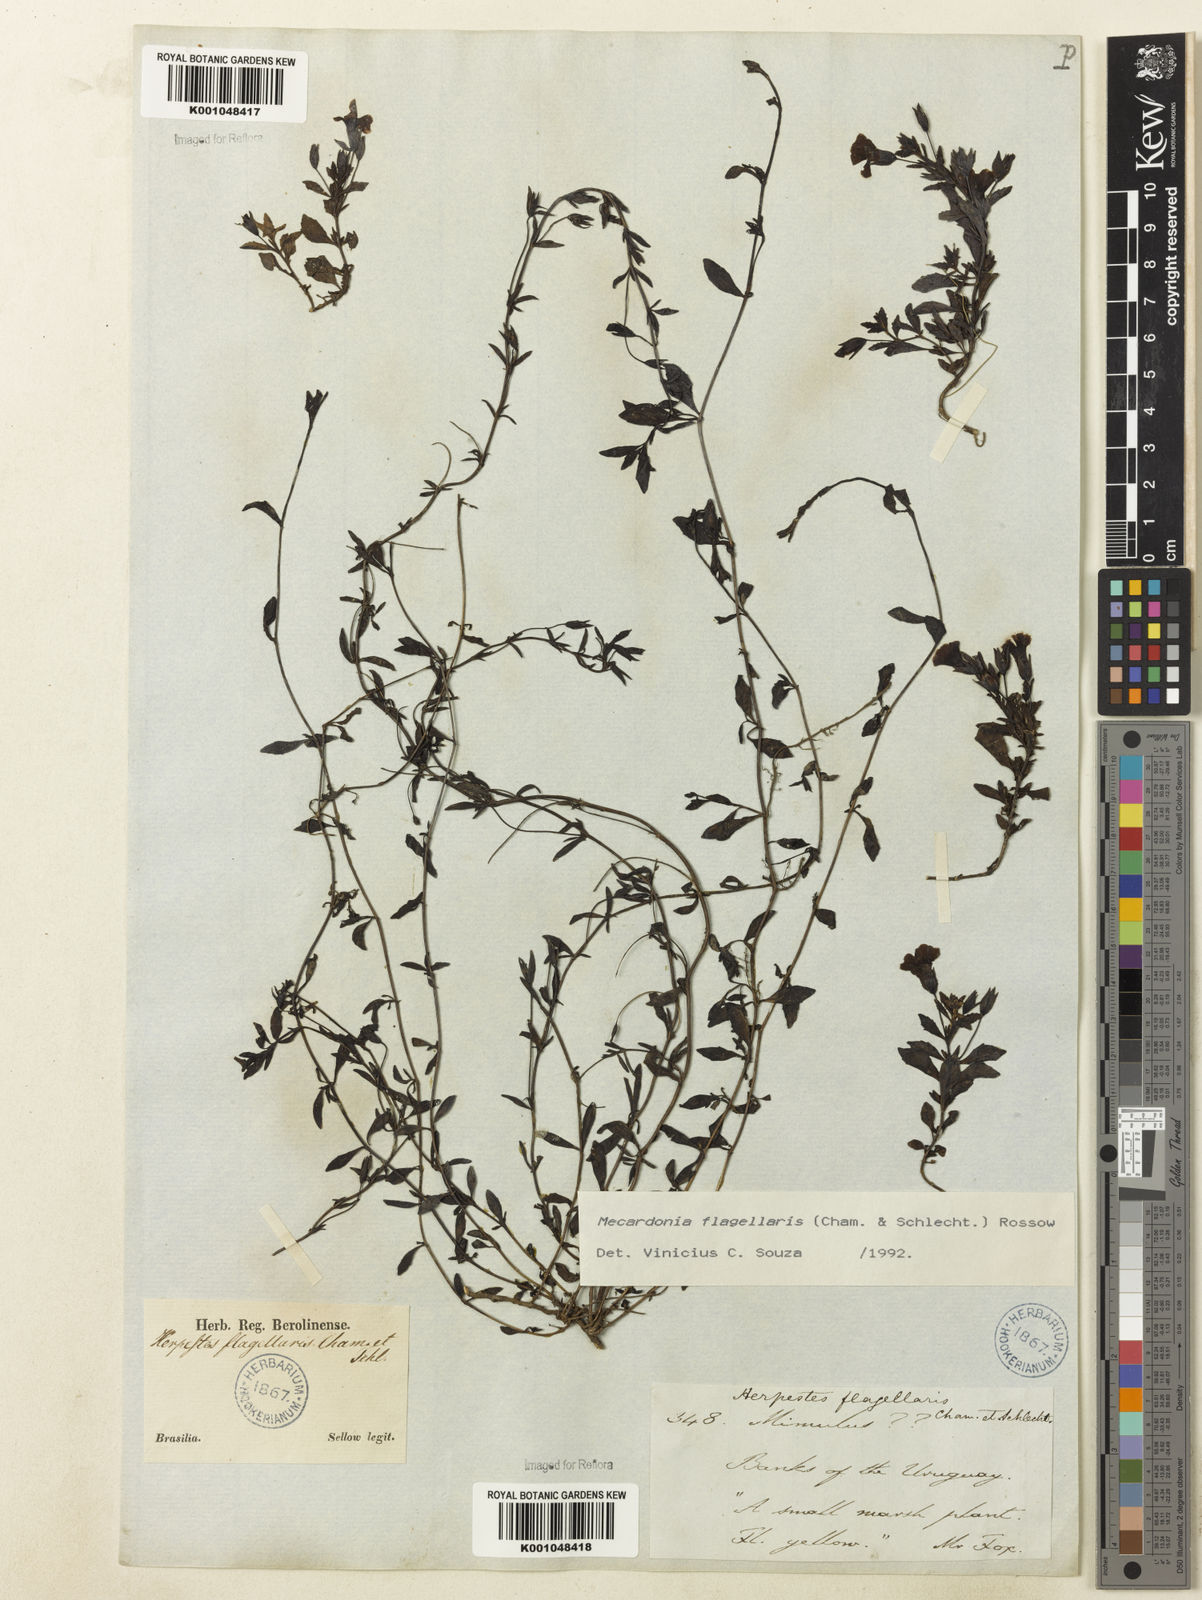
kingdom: Plantae
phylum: Tracheophyta
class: Magnoliopsida
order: Lamiales
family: Plantaginaceae
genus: Mecardonia
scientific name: Mecardonia flagellaris
